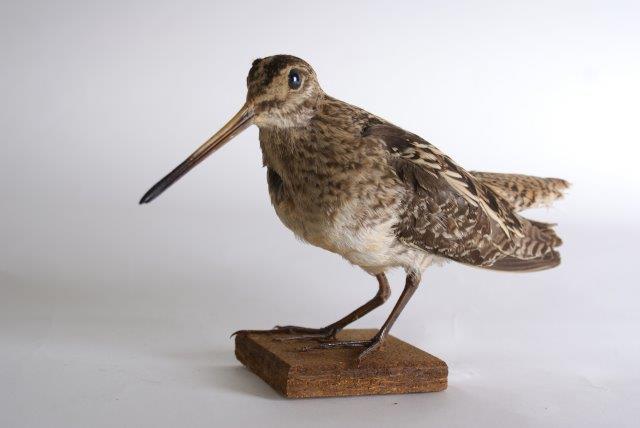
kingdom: Animalia
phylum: Chordata
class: Aves
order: Charadriiformes
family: Scolopacidae
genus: Gallinago
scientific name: Gallinago gallinago
